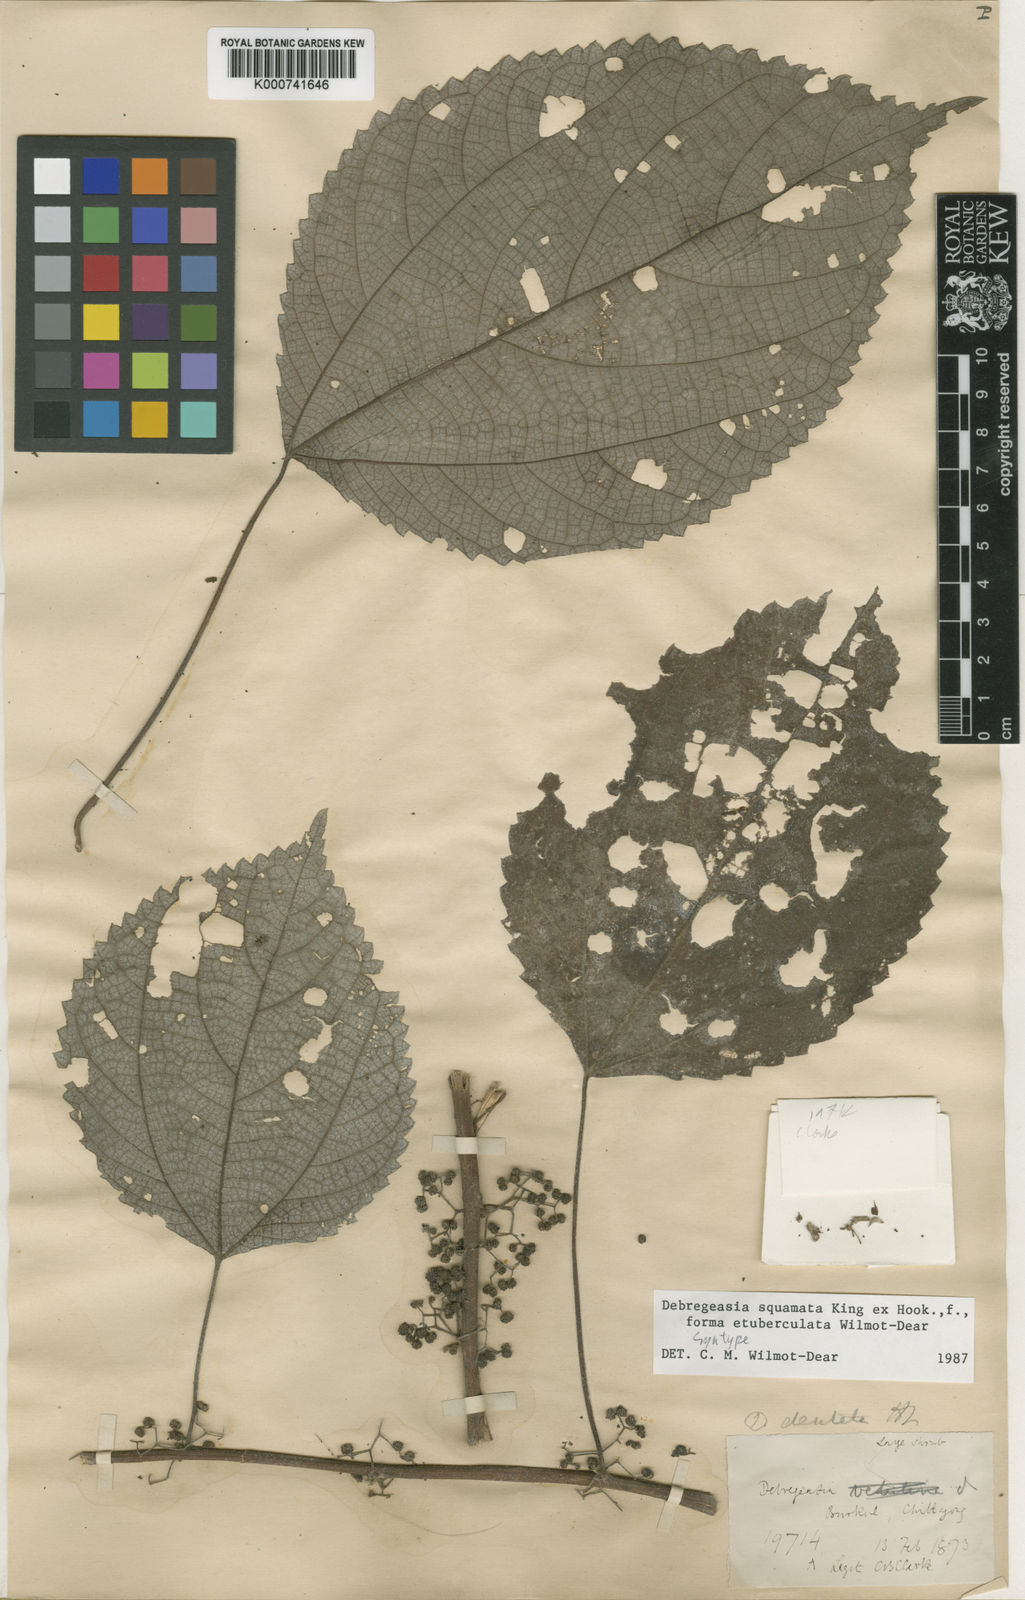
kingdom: Plantae
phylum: Tracheophyta
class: Magnoliopsida
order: Rosales
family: Urticaceae
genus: Debregeasia
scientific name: Debregeasia dentata
